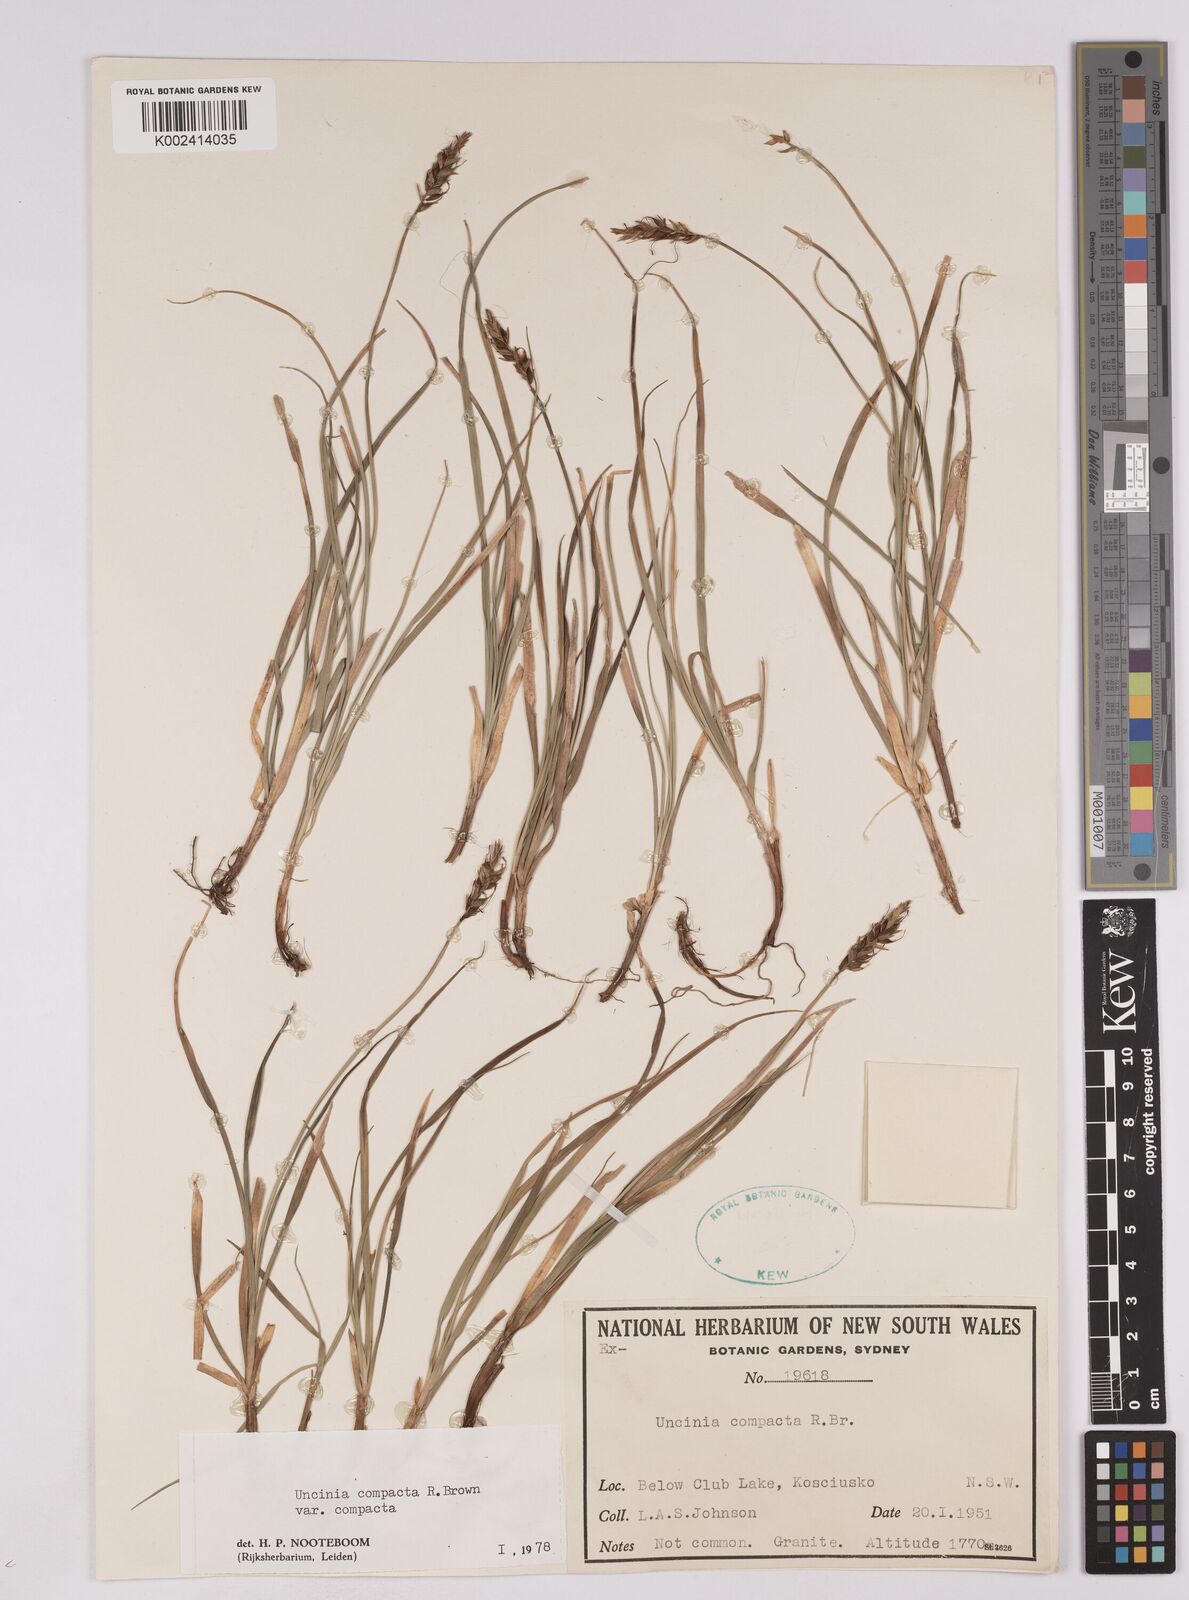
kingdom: Plantae
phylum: Tracheophyta
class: Liliopsida
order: Poales
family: Cyperaceae
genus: Carex
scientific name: Carex austrocompacta
